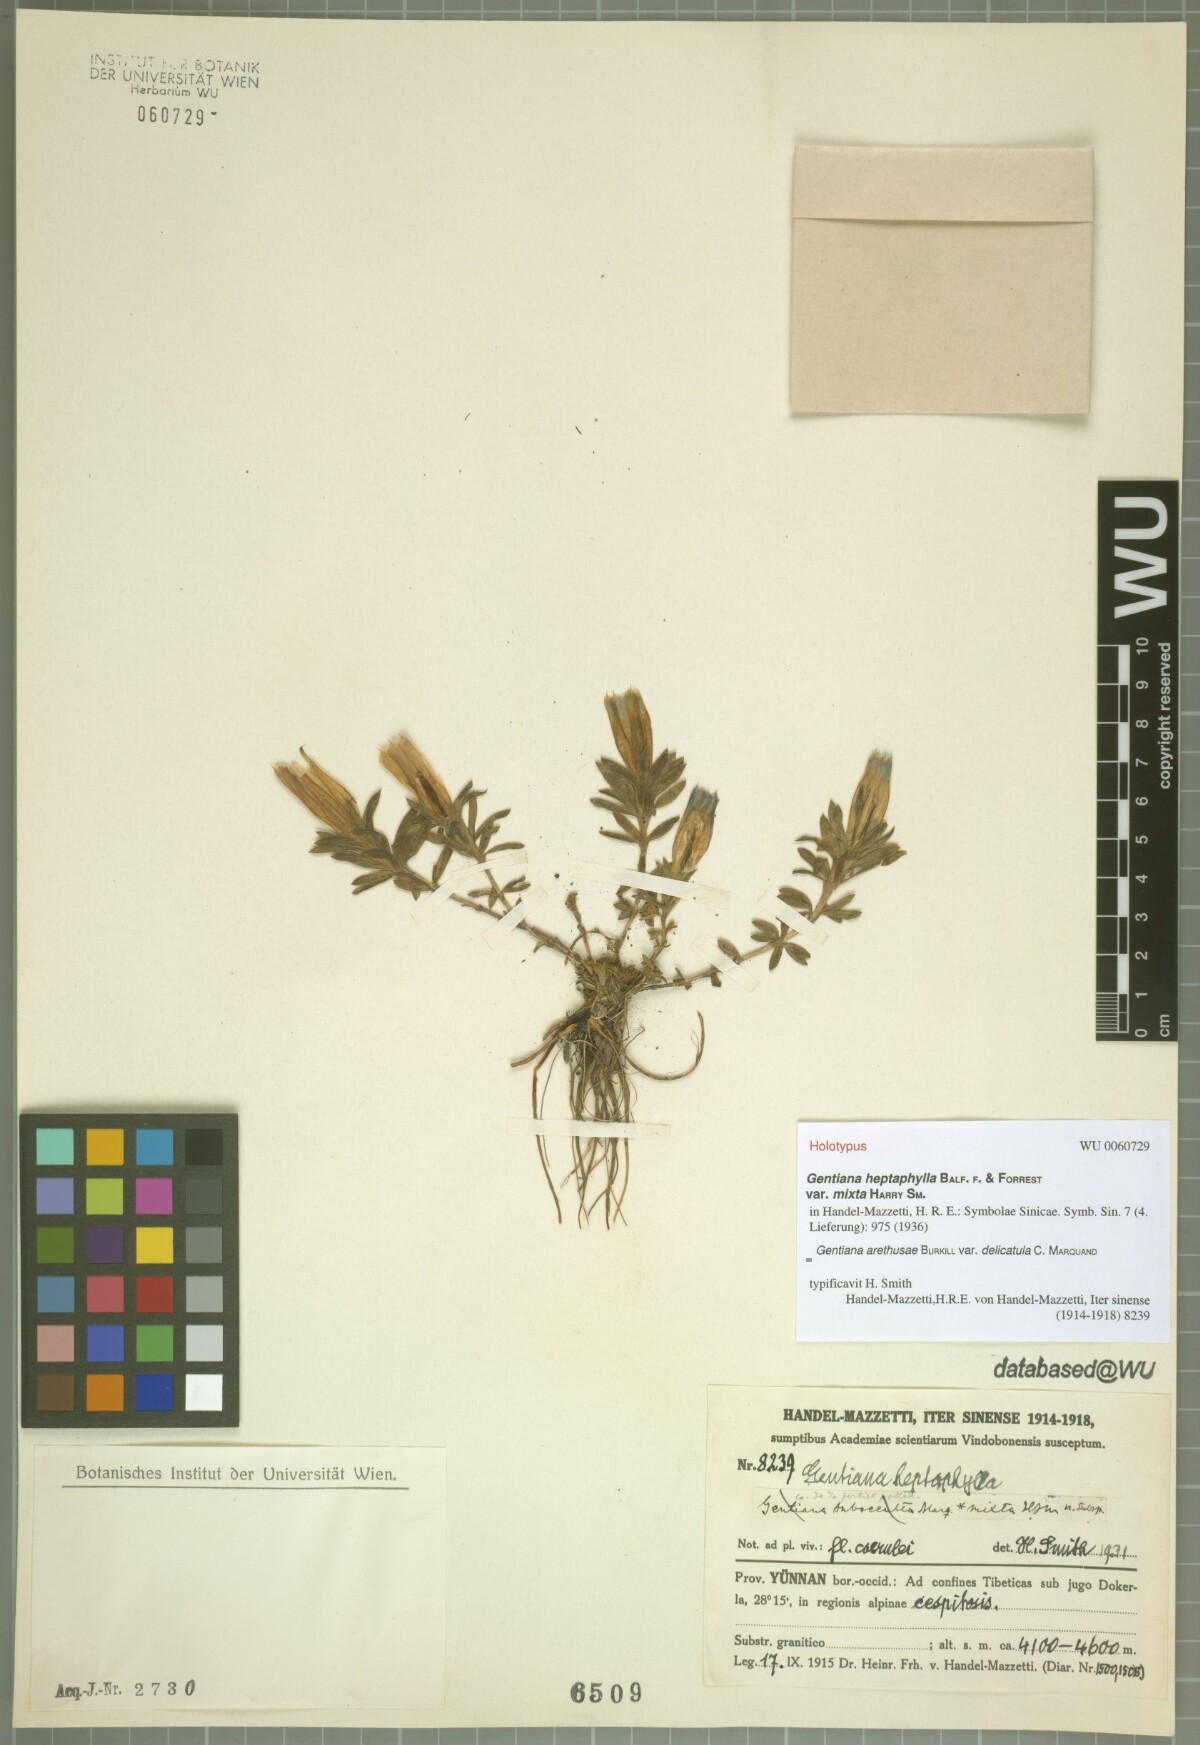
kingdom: Plantae
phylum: Tracheophyta
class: Magnoliopsida
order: Gentianales
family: Gentianaceae
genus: Gentiana
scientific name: Gentiana arethusae
